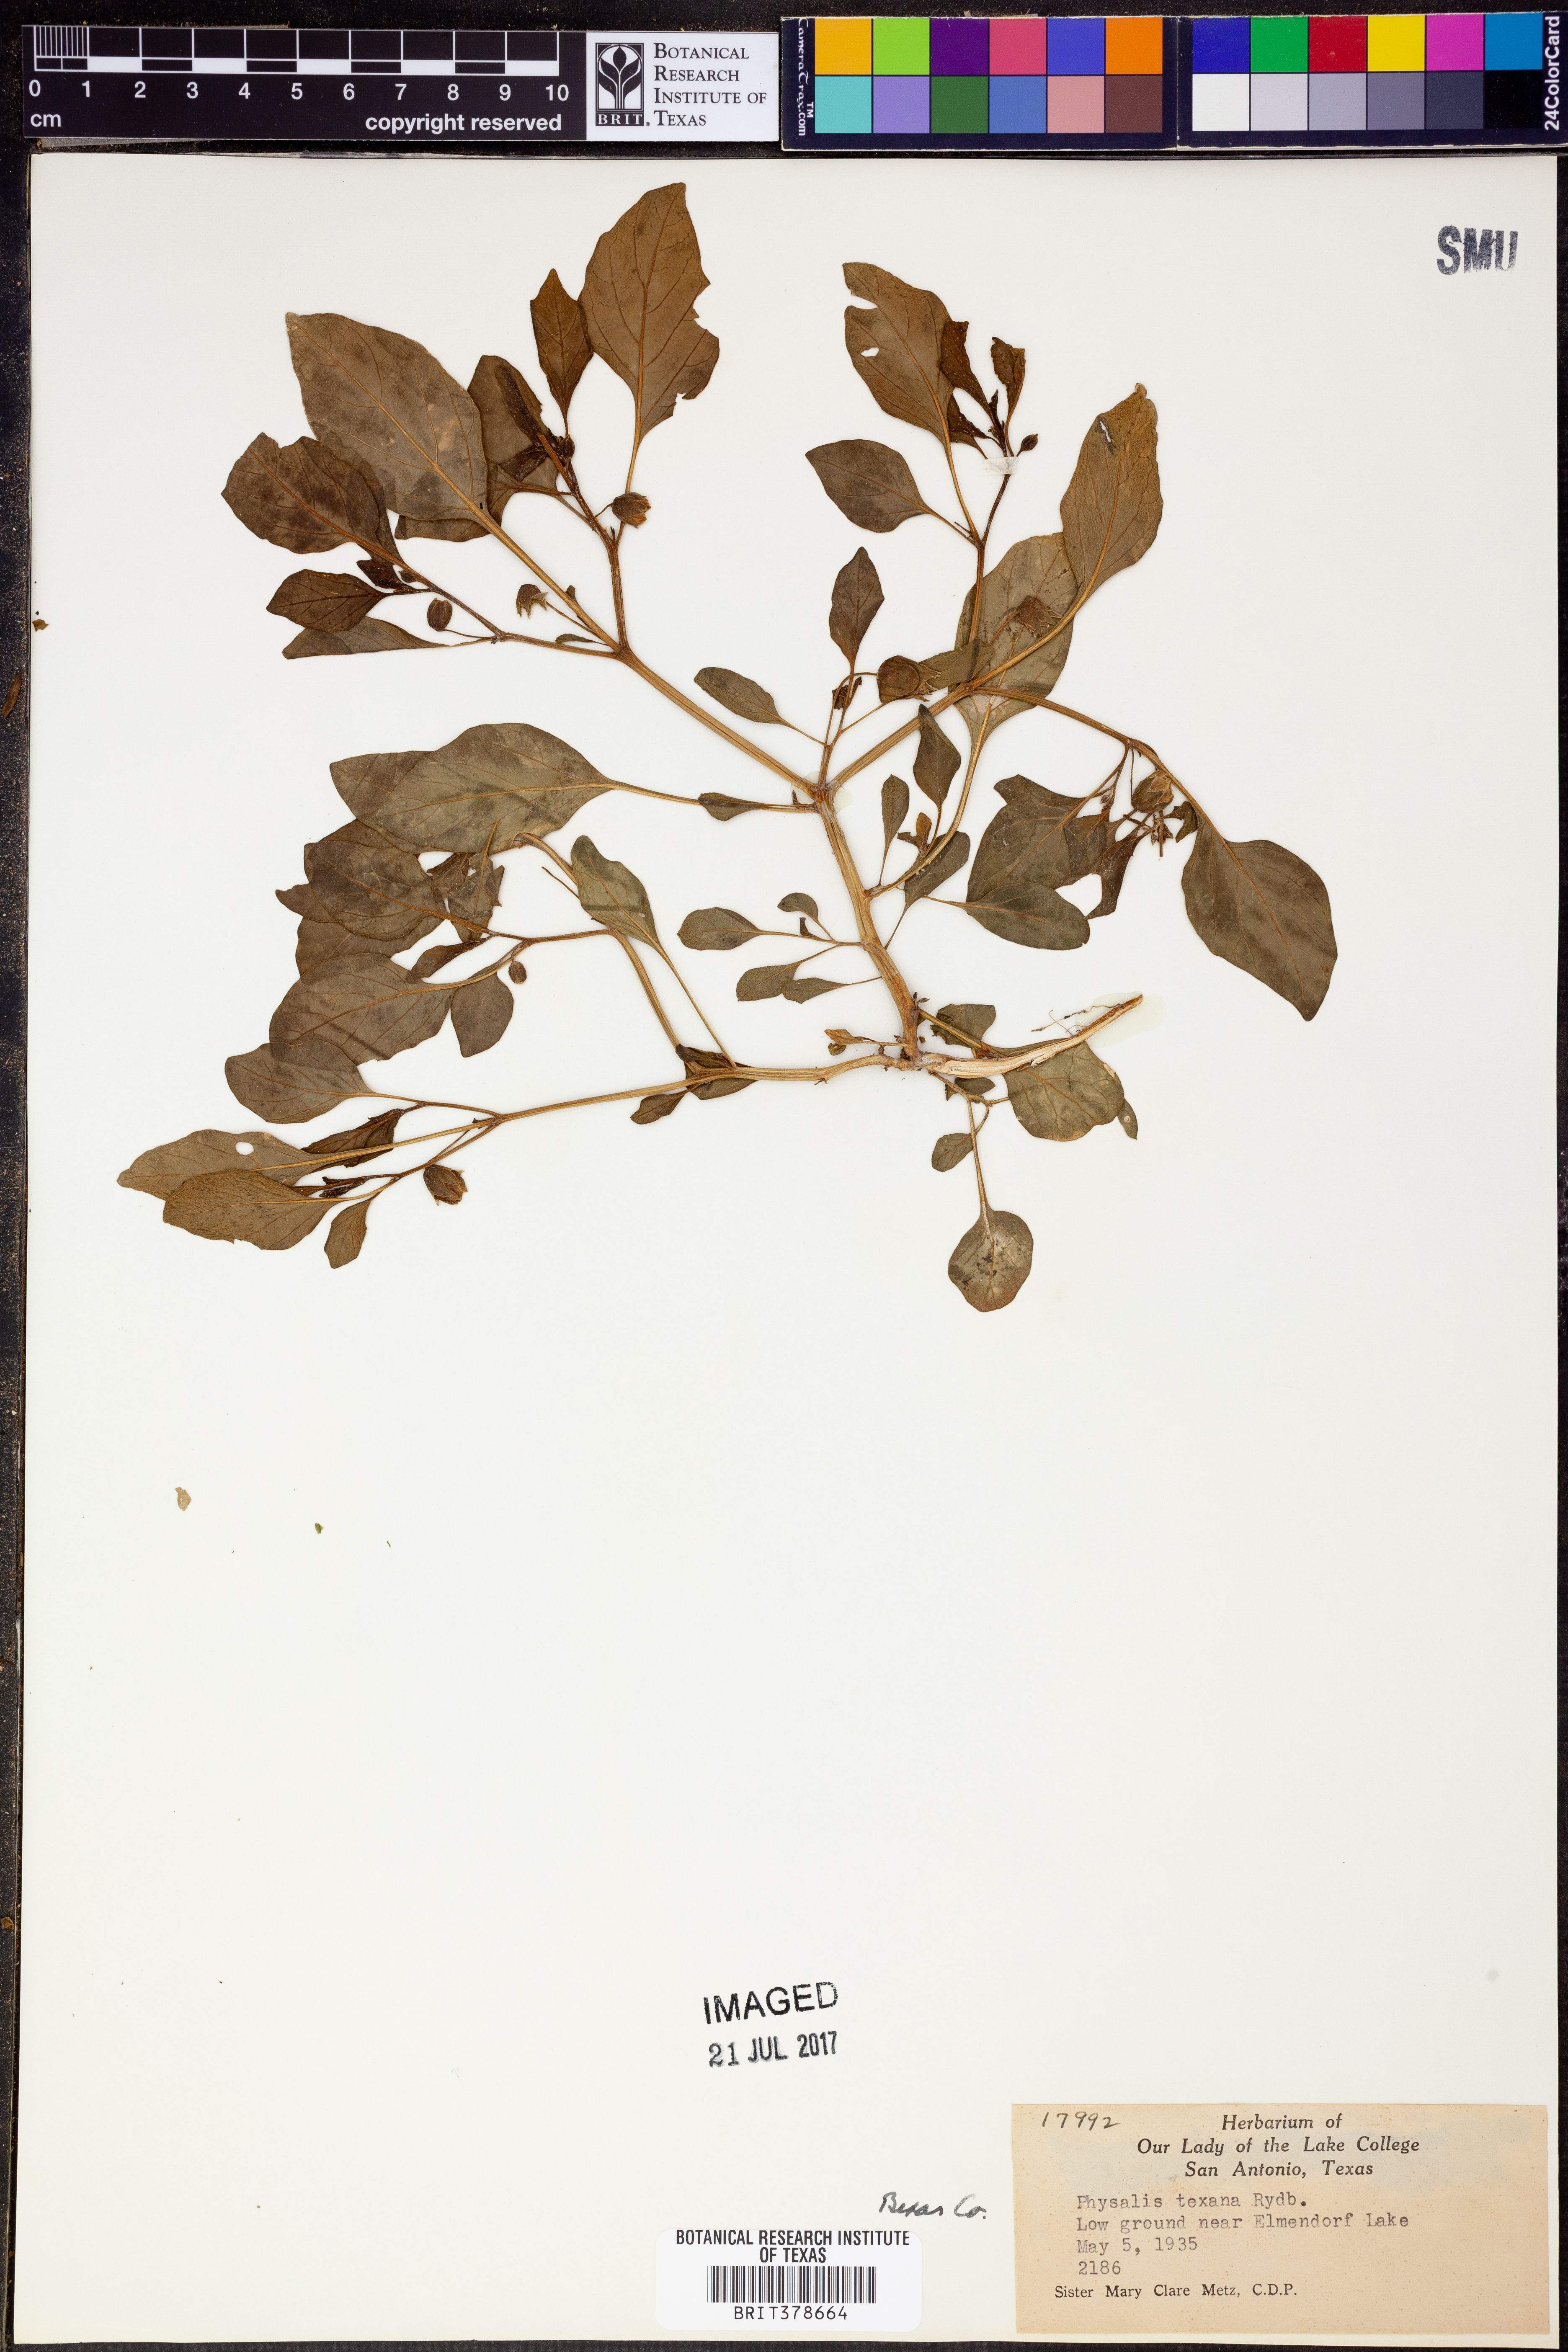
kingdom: Plantae
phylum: Tracheophyta
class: Magnoliopsida
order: Solanales
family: Solanaceae
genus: Physalis
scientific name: Physalis longifolia
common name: Common ground-cherry
